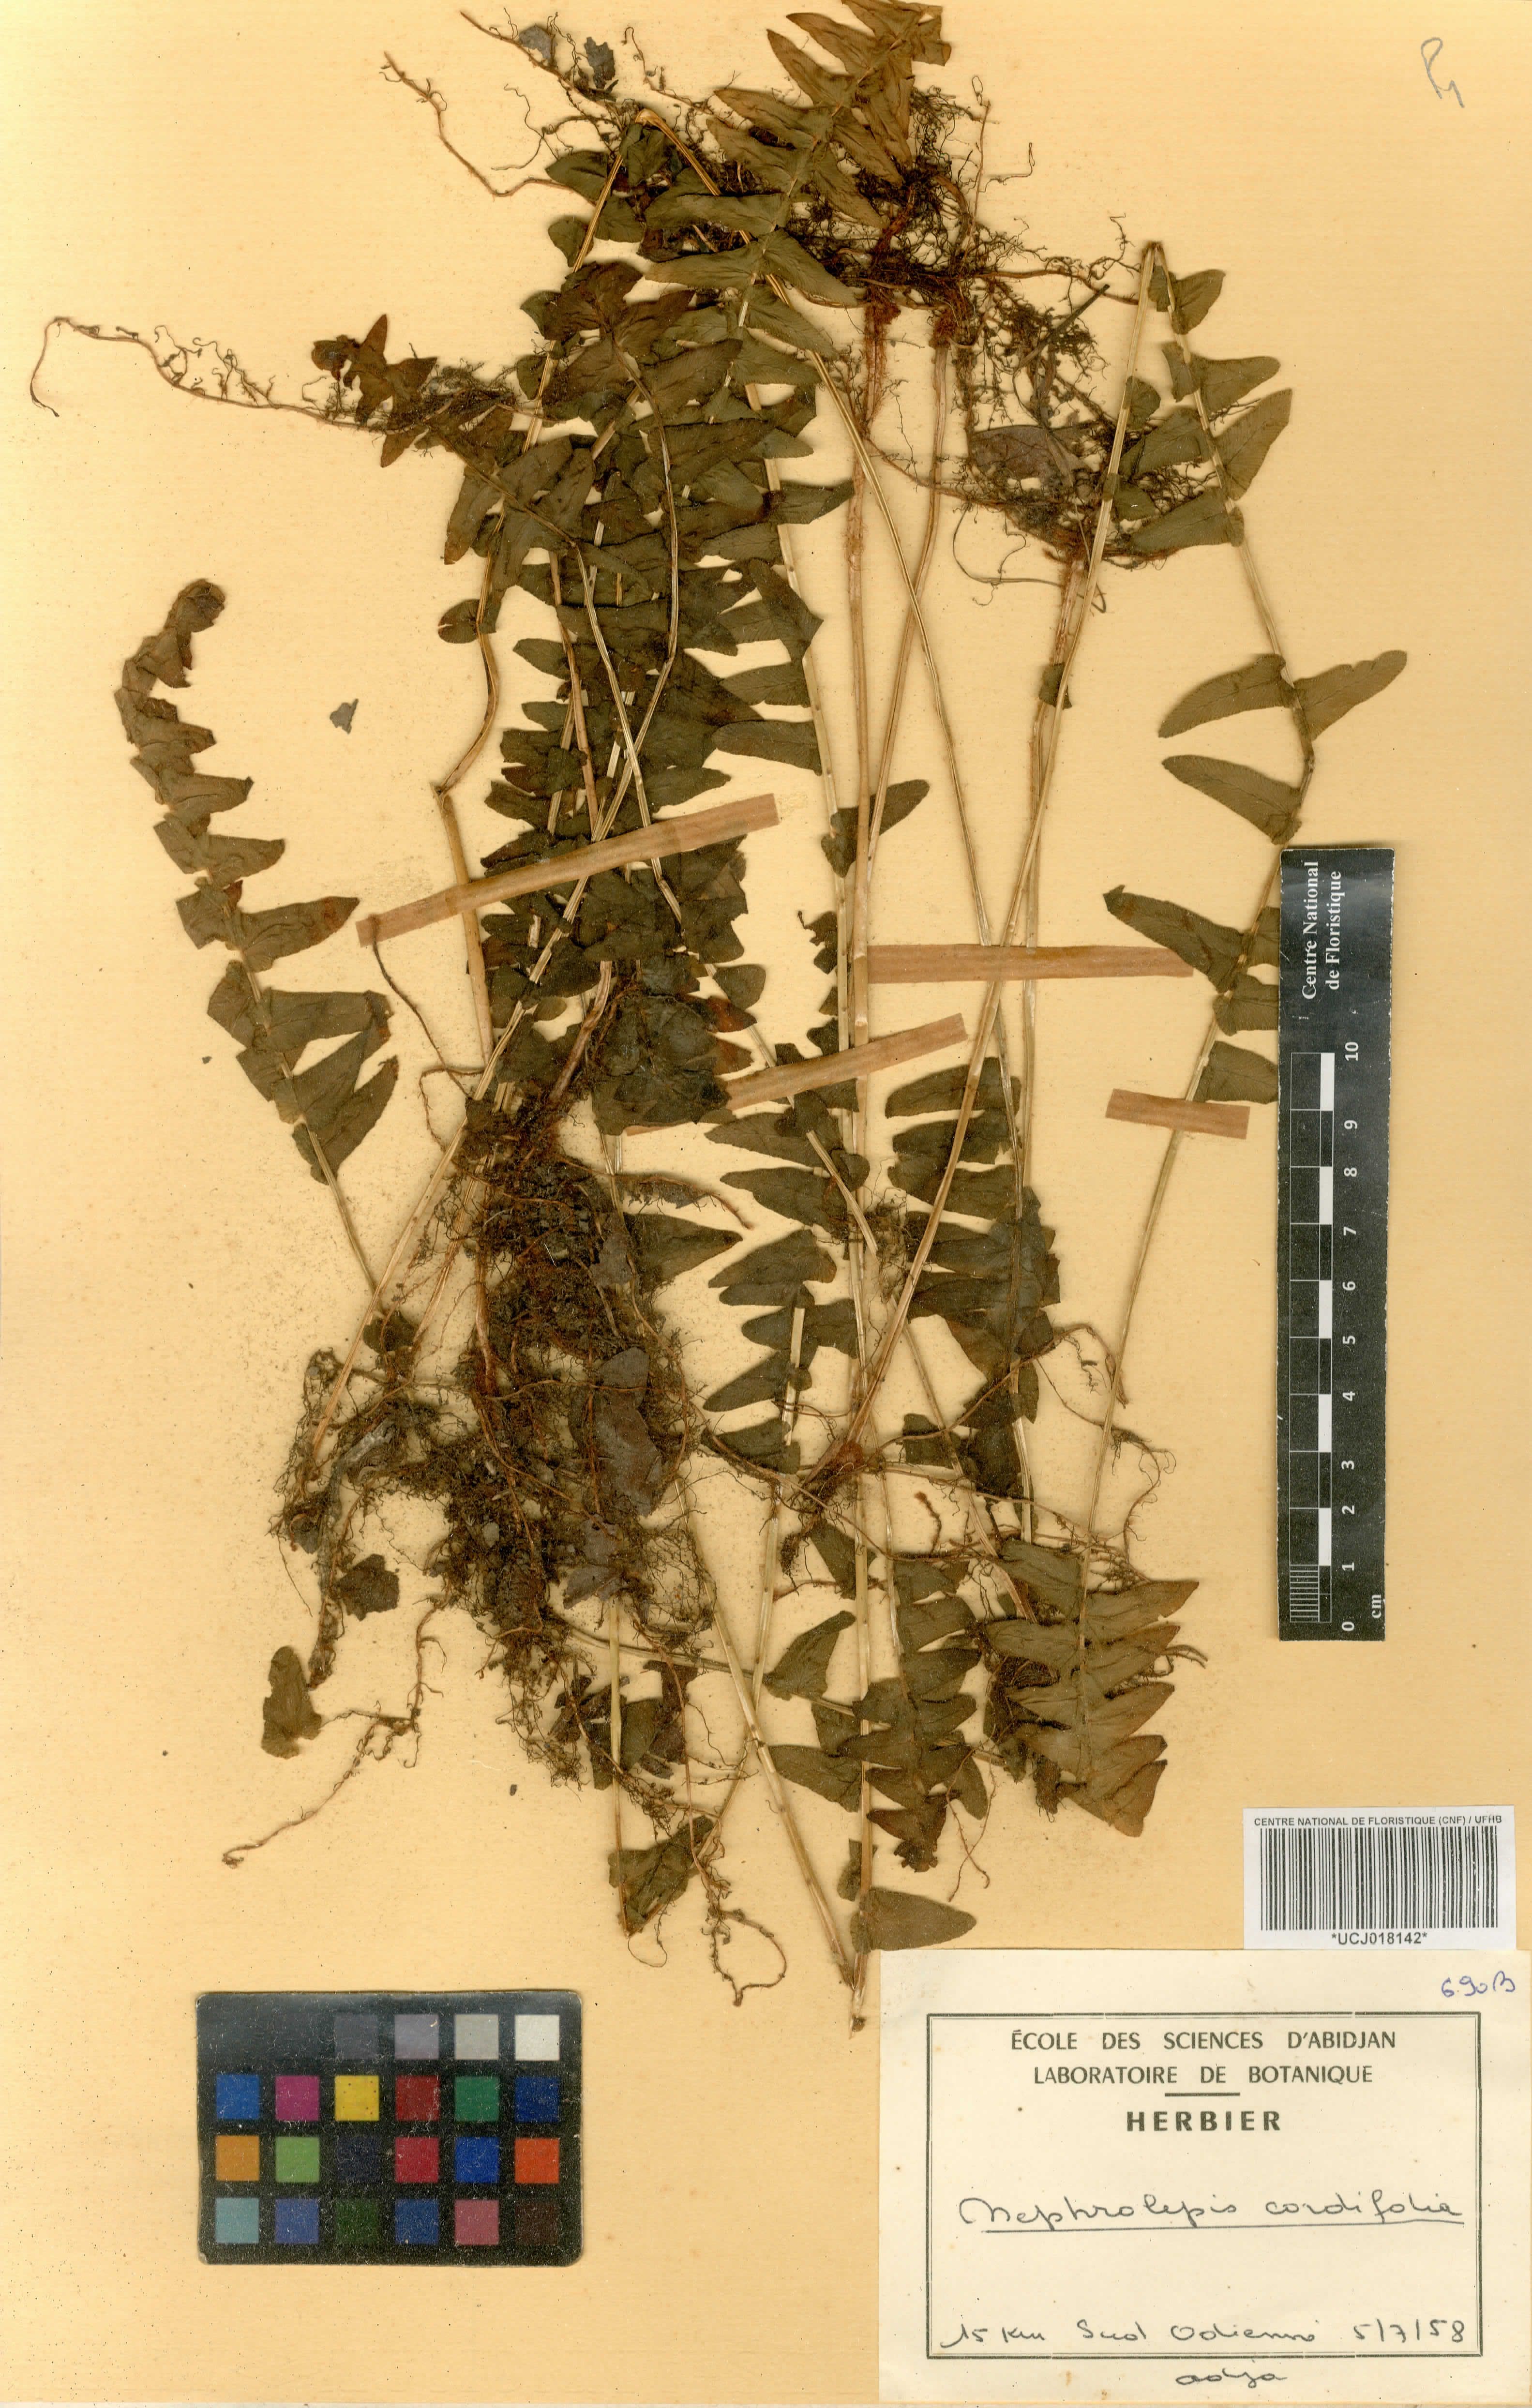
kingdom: Plantae
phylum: Tracheophyta
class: Polypodiopsida
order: Polypodiales
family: Nephrolepidaceae
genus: Nephrolepis
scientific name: Nephrolepis cordifolia
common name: Narrow swordfern
